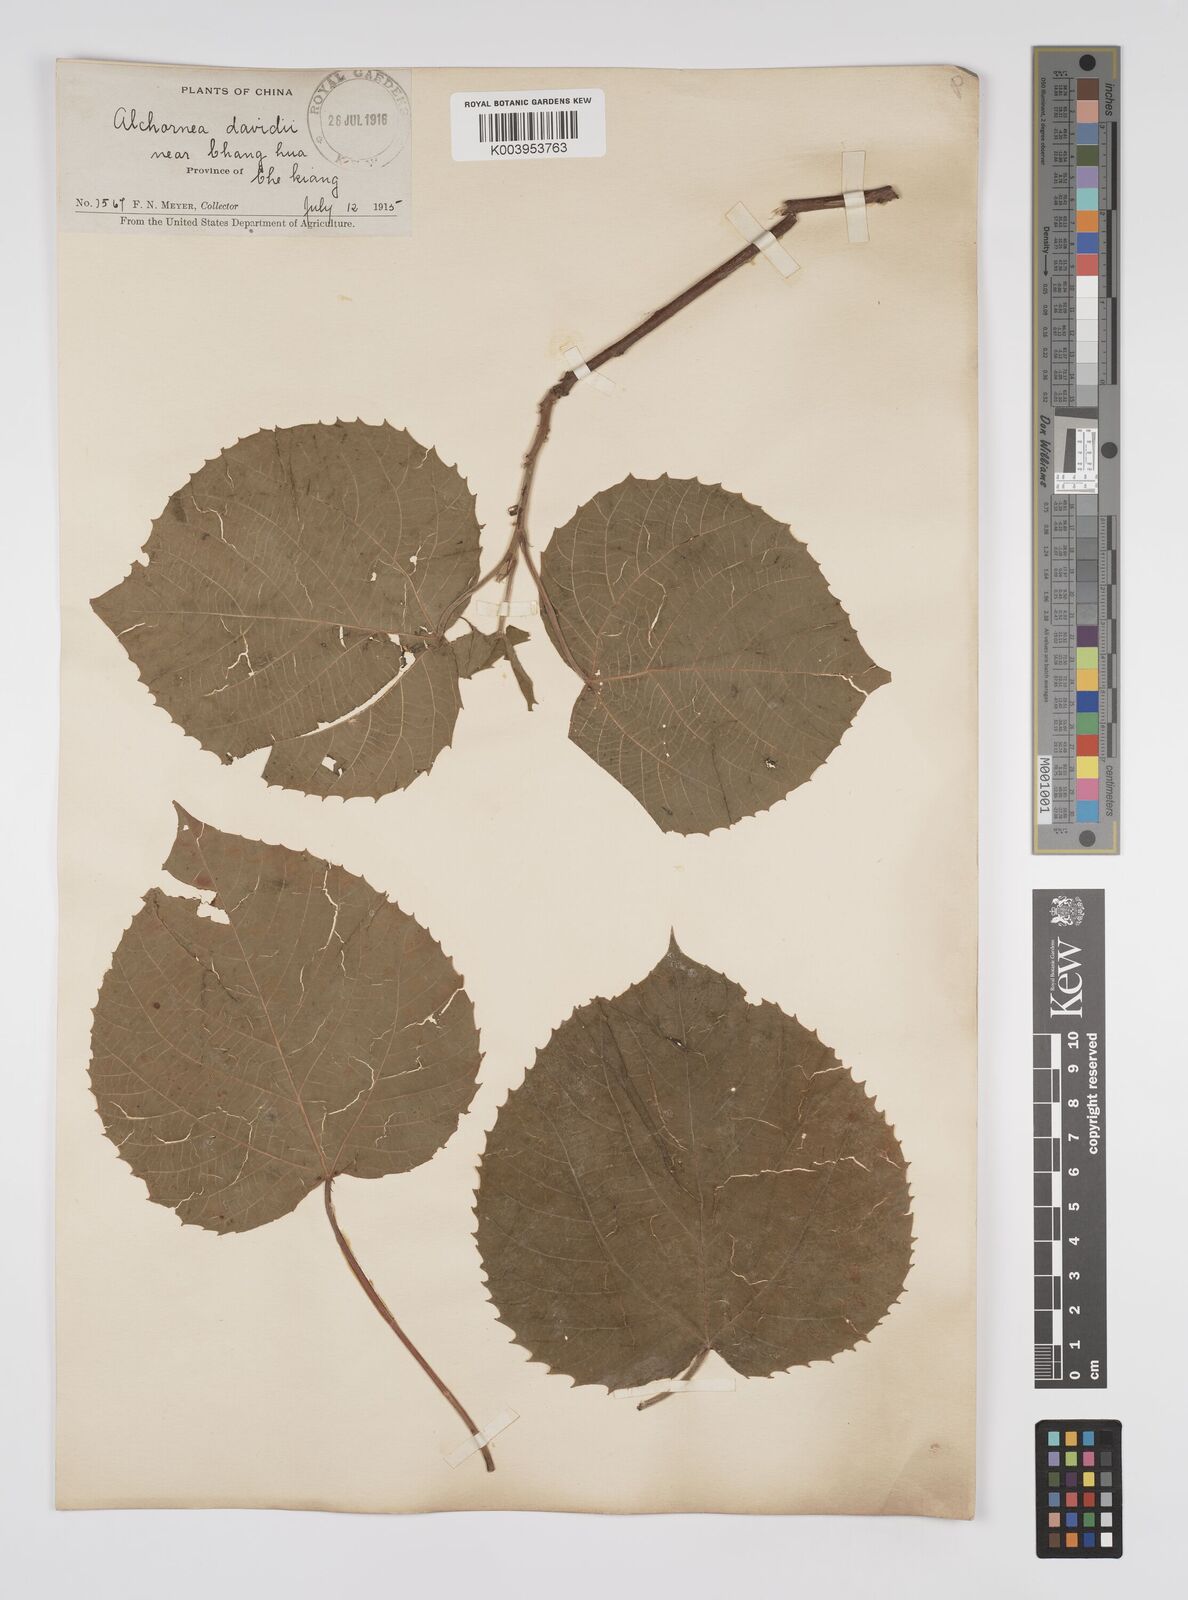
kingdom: Plantae
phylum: Tracheophyta
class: Magnoliopsida
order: Malpighiales
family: Euphorbiaceae
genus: Alchornea
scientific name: Alchornea davidii
